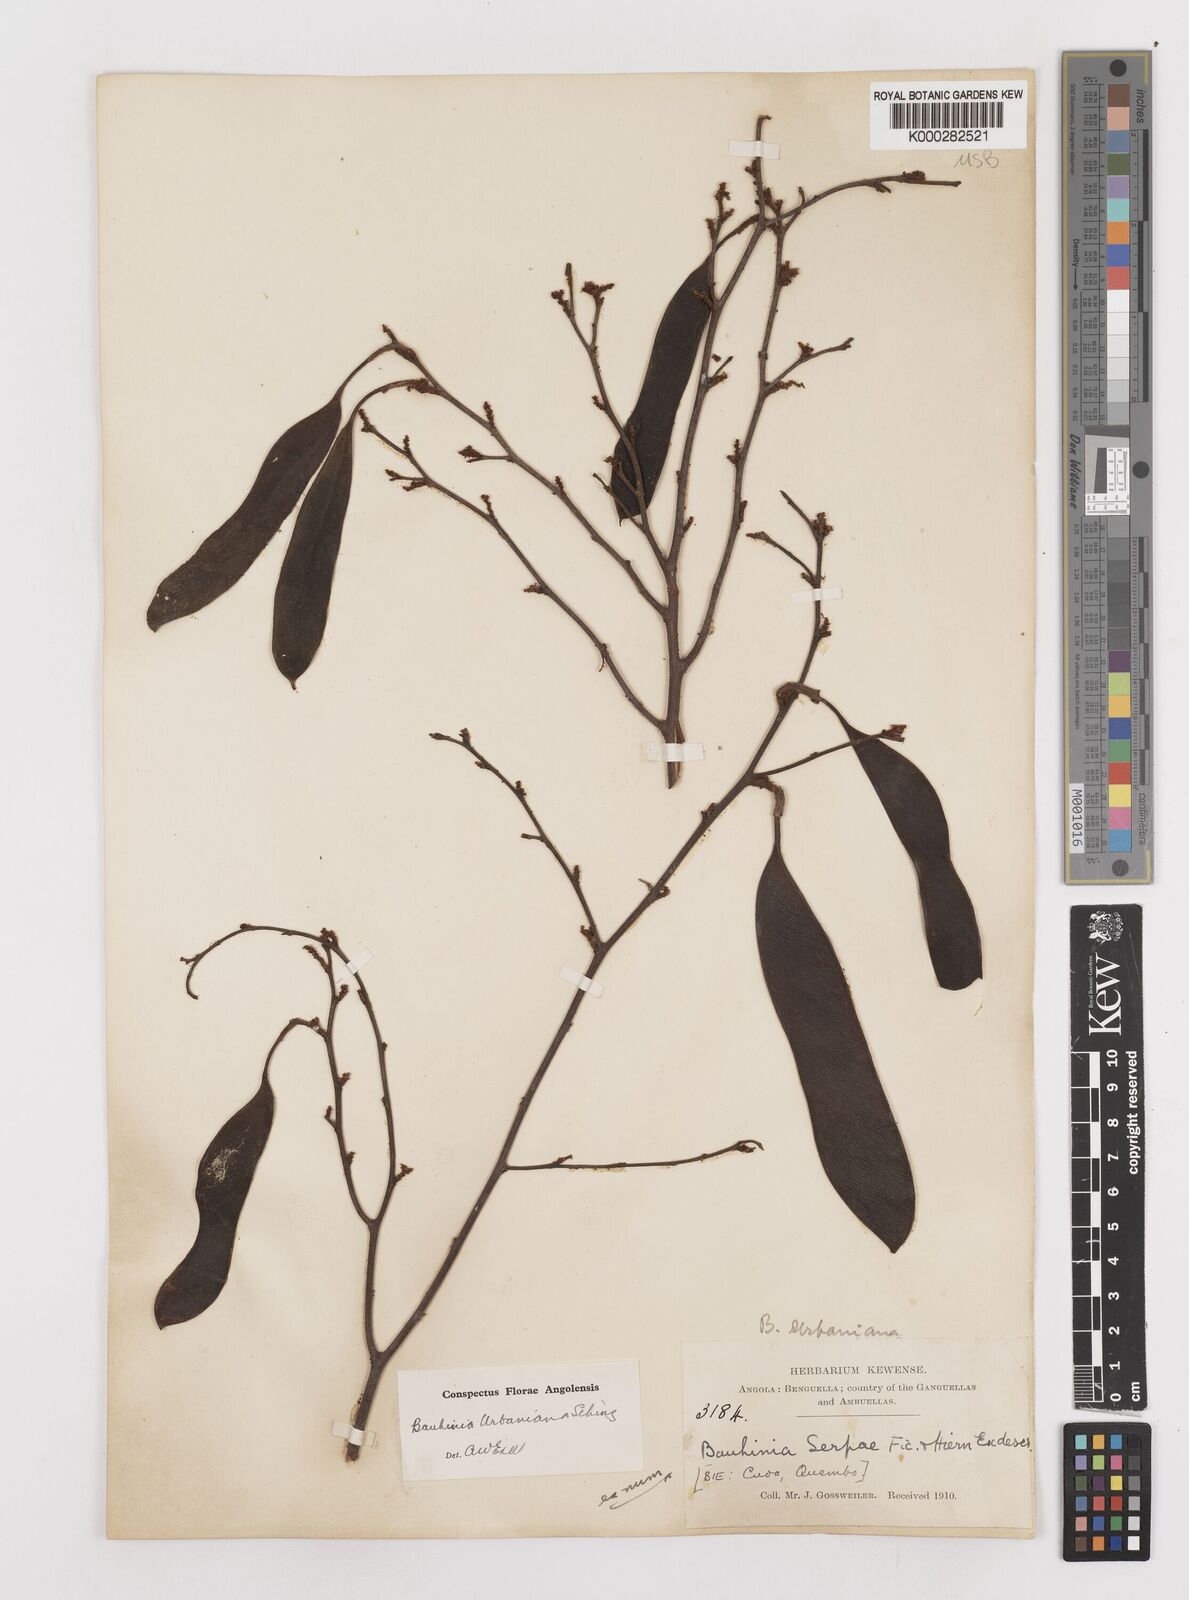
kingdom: Plantae
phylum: Tracheophyta
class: Magnoliopsida
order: Fabales
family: Fabaceae
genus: Bauhinia
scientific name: Bauhinia urbaniana
